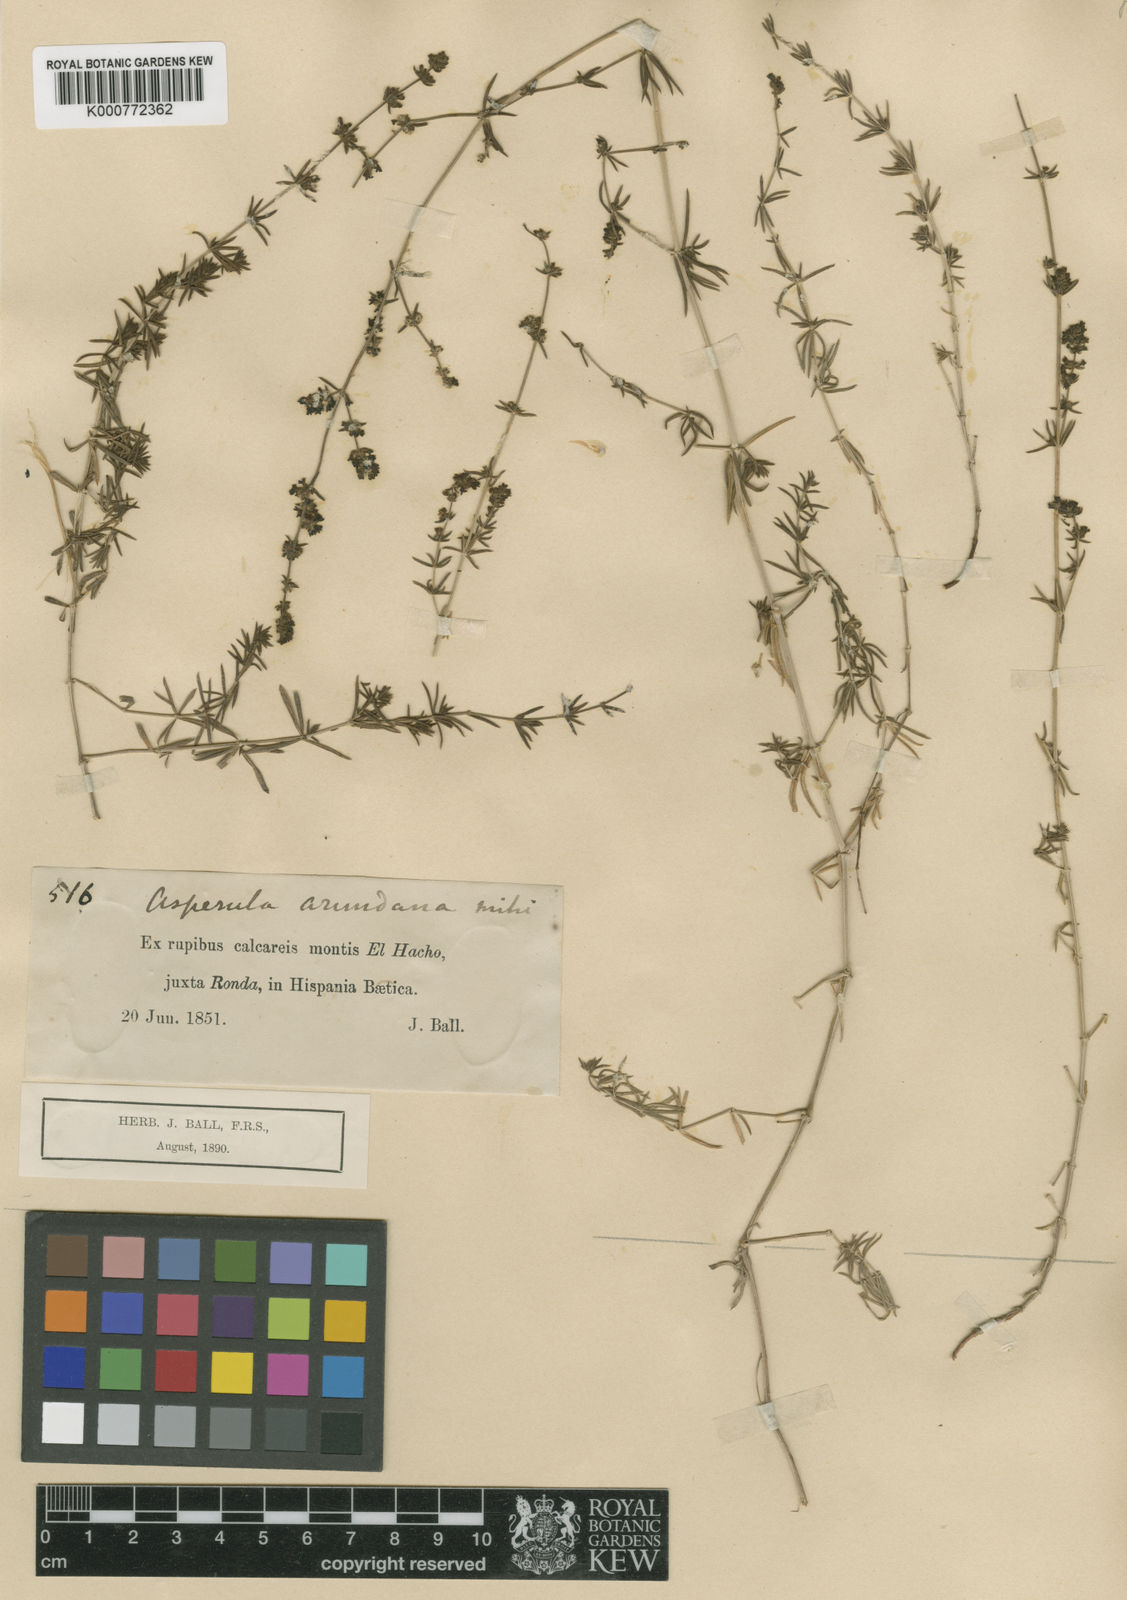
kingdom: Plantae
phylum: Tracheophyta
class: Magnoliopsida
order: Gentianales
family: Rubiaceae
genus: Galium
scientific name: Galium baeticum
